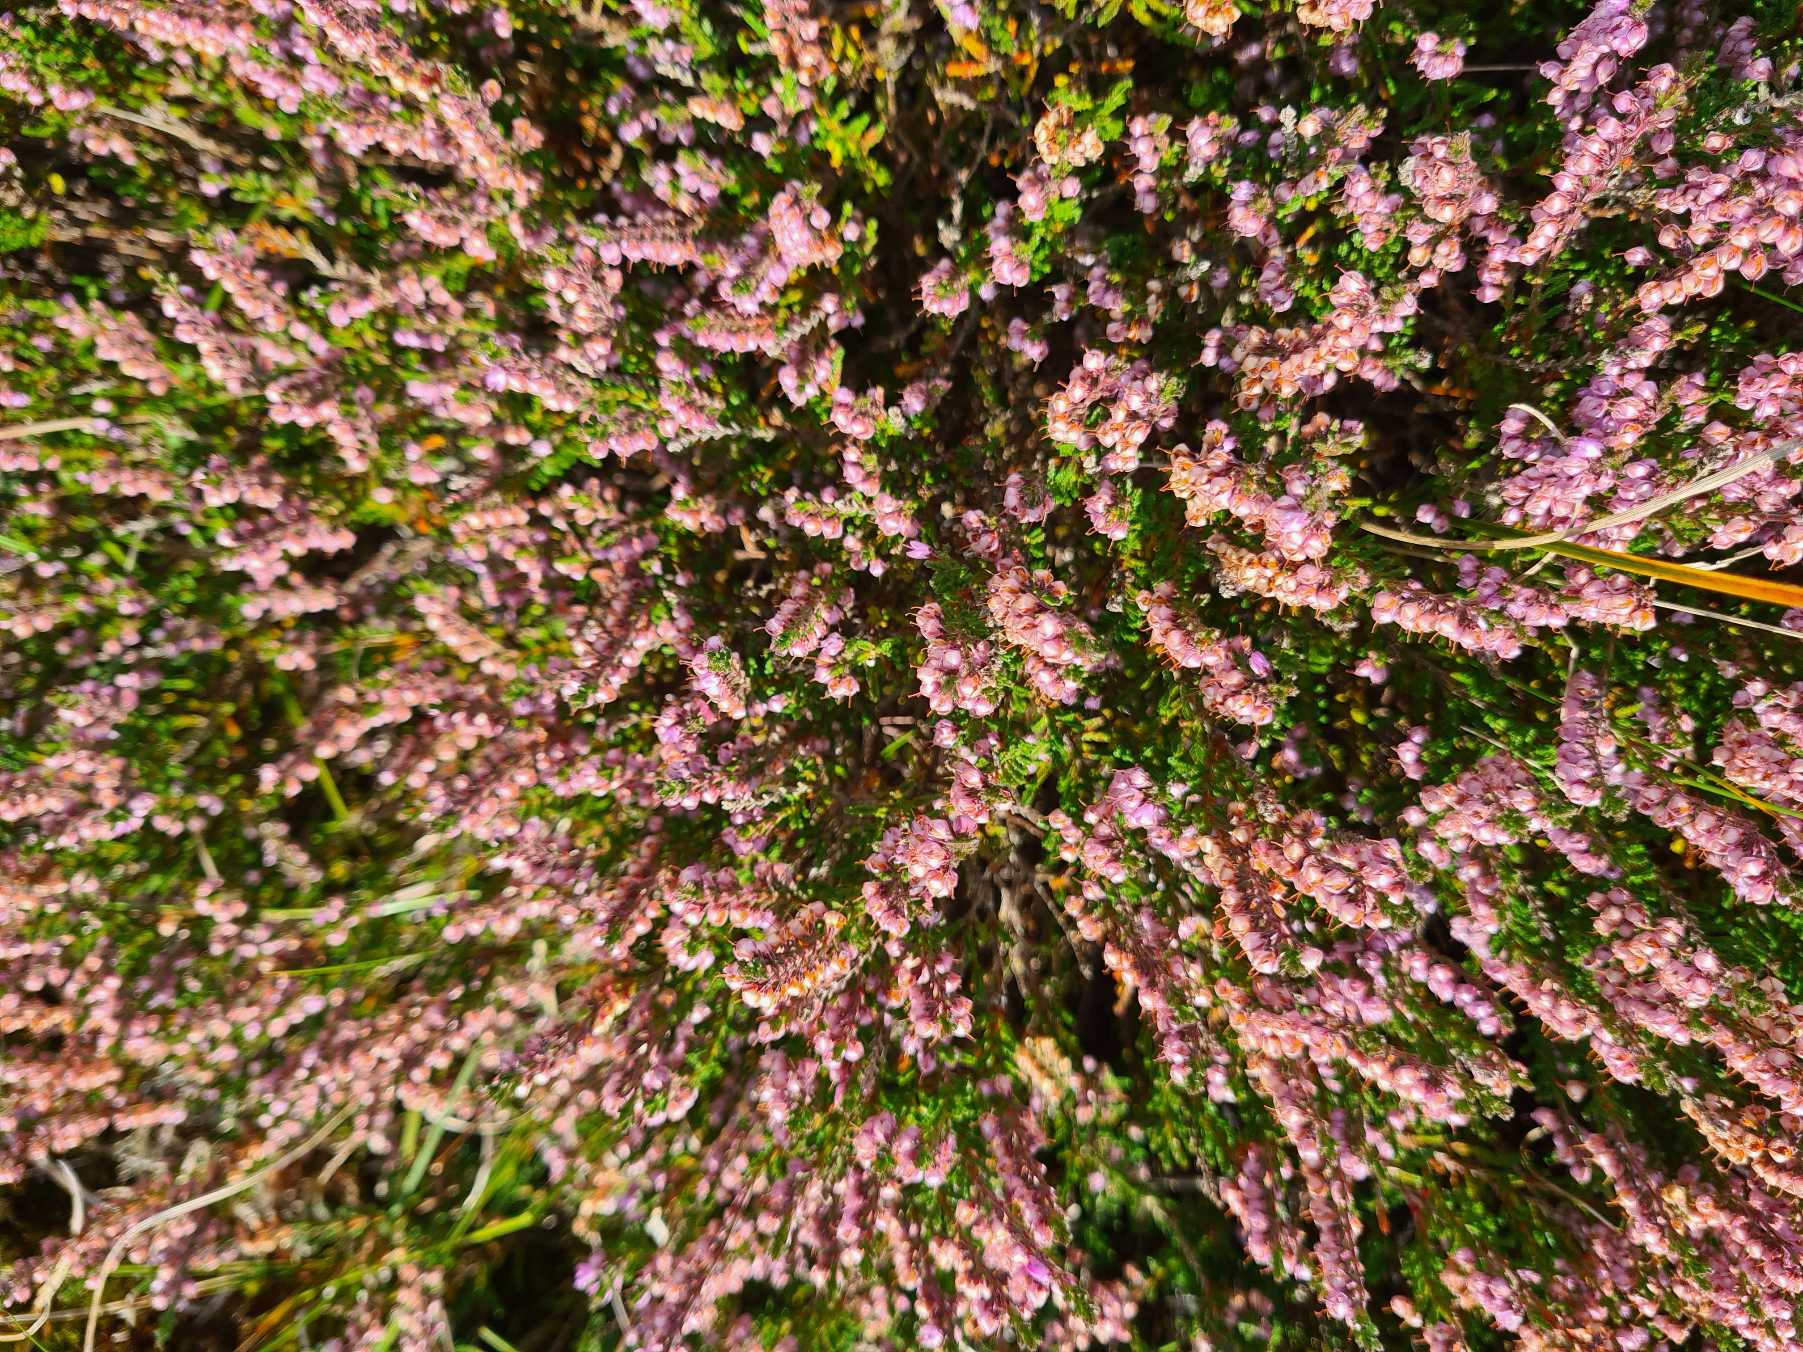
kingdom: Plantae
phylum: Tracheophyta
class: Magnoliopsida
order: Ericales
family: Ericaceae
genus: Calluna
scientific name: Calluna vulgaris
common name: Hedelyng
